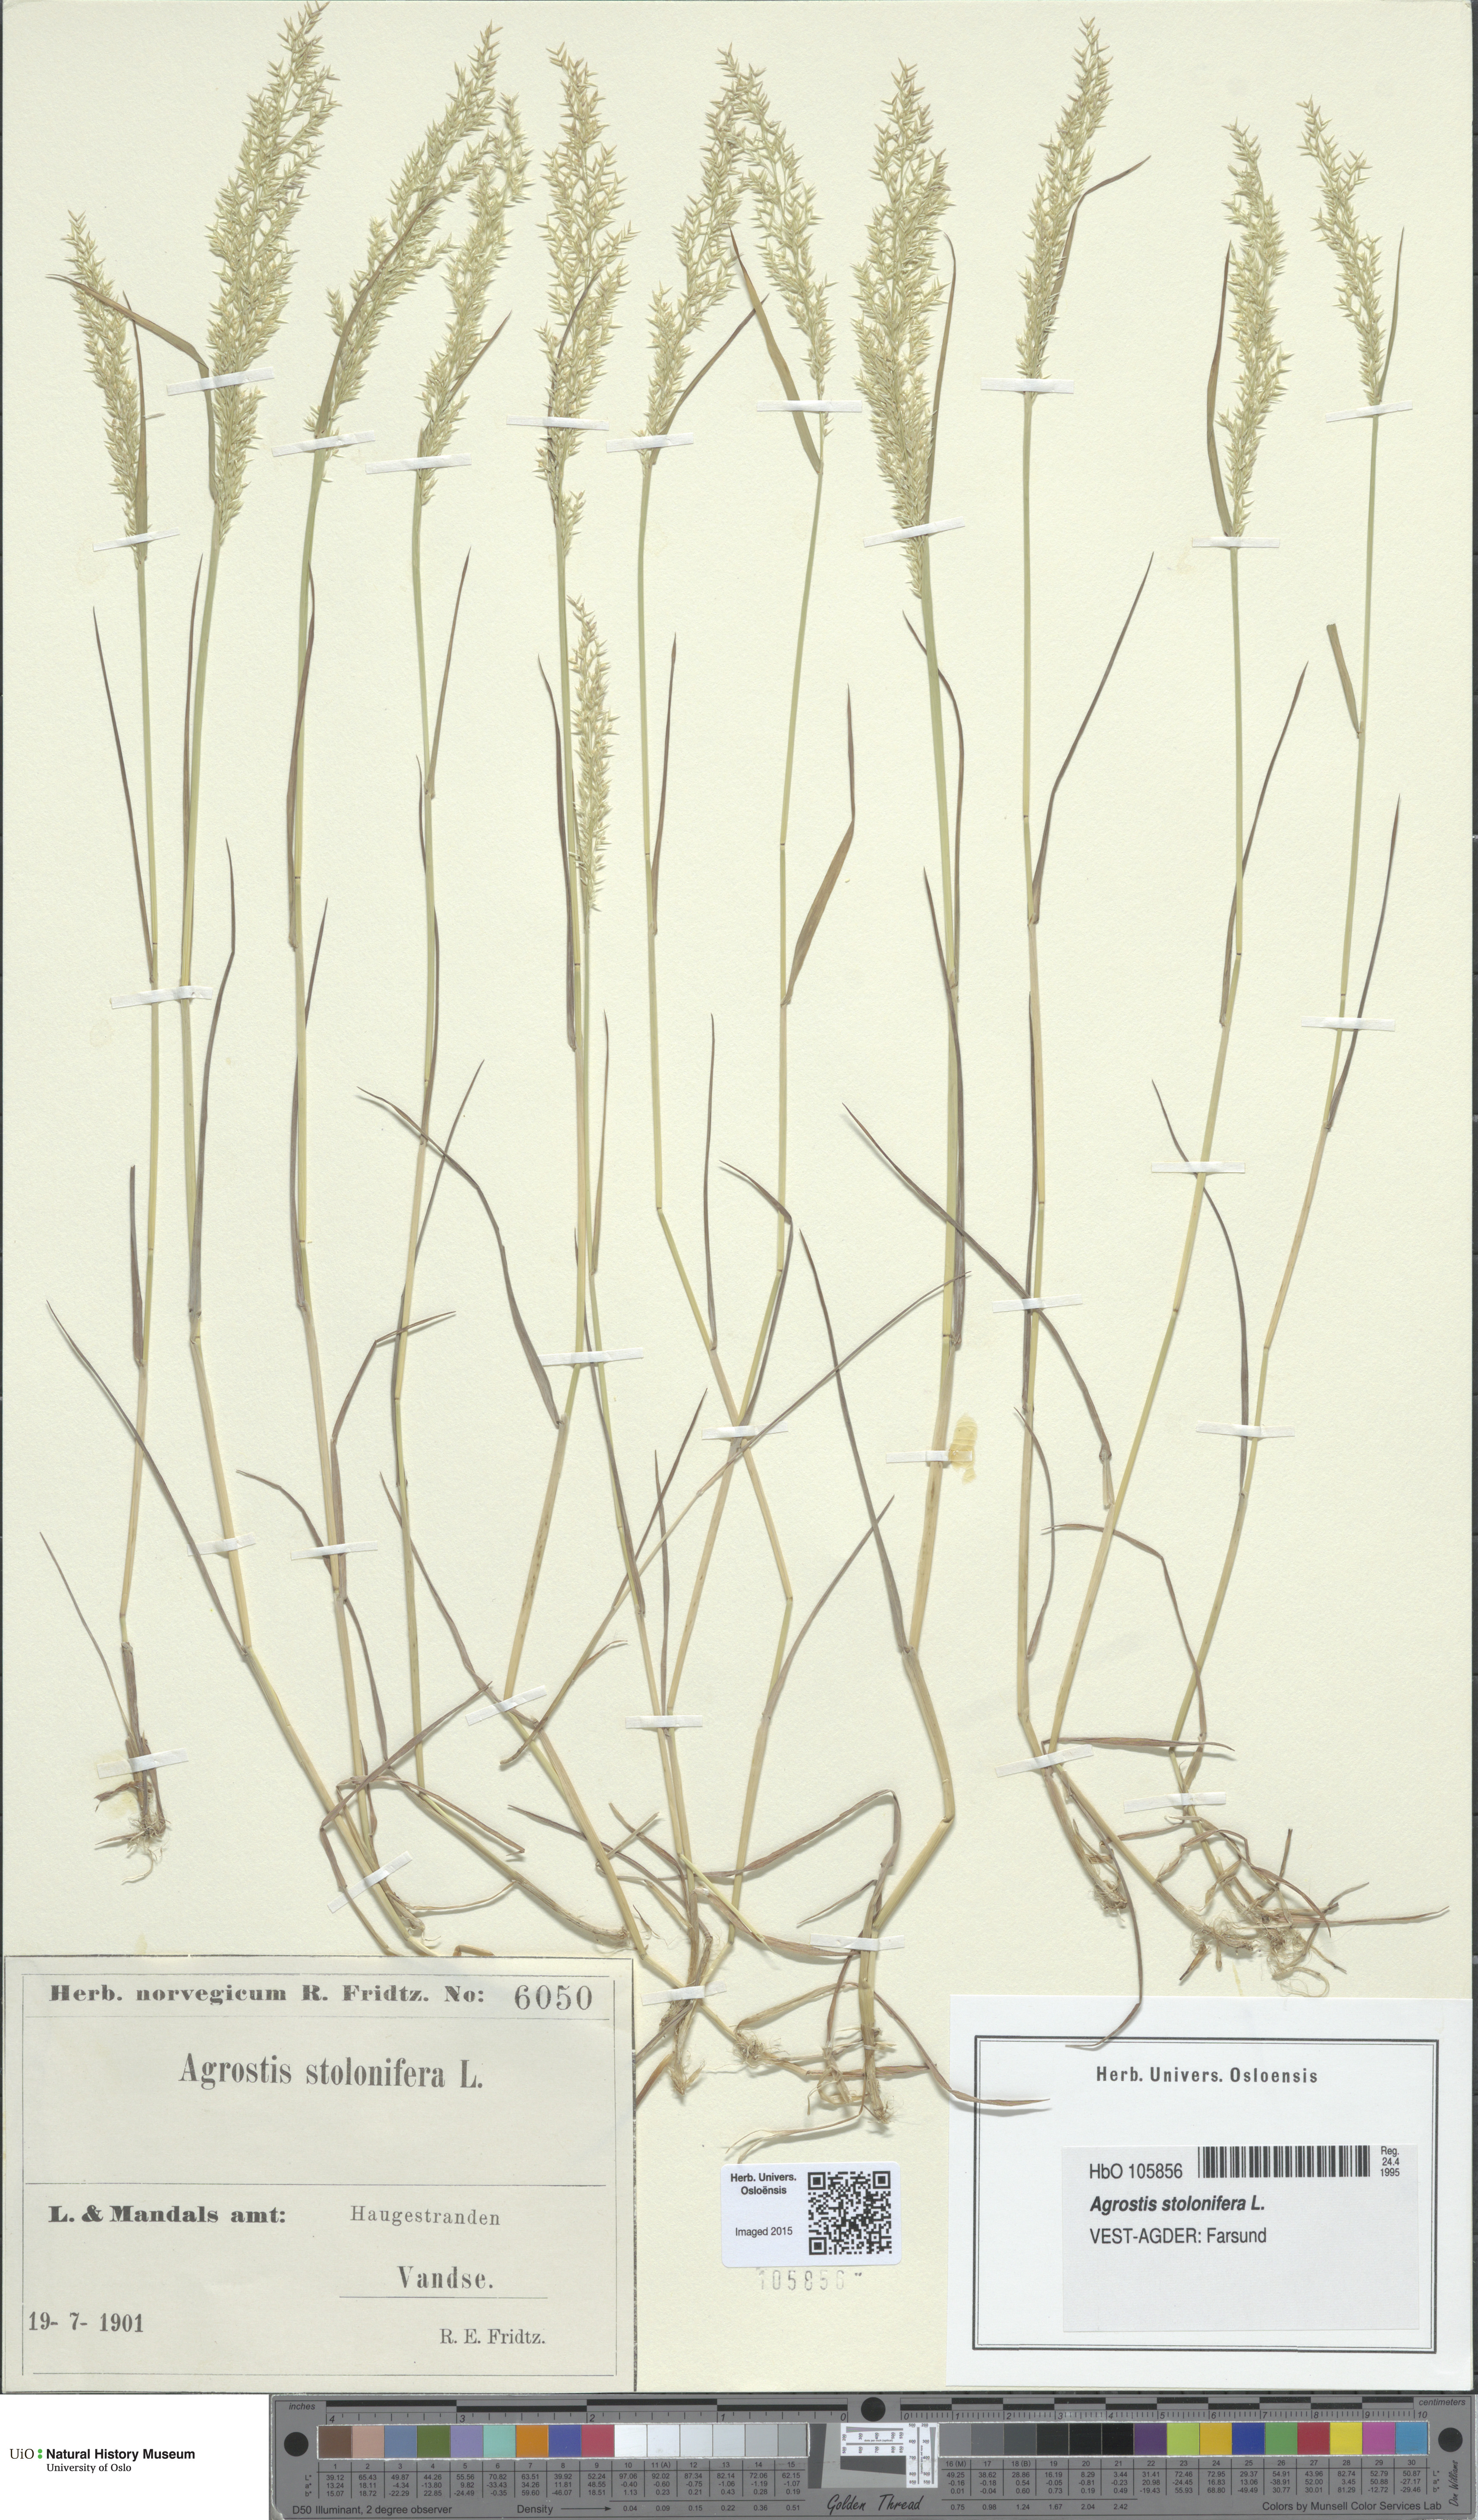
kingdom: Plantae
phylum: Tracheophyta
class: Liliopsida
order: Poales
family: Poaceae
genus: Agrostis
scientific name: Agrostis stolonifera
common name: Creeping bentgrass
